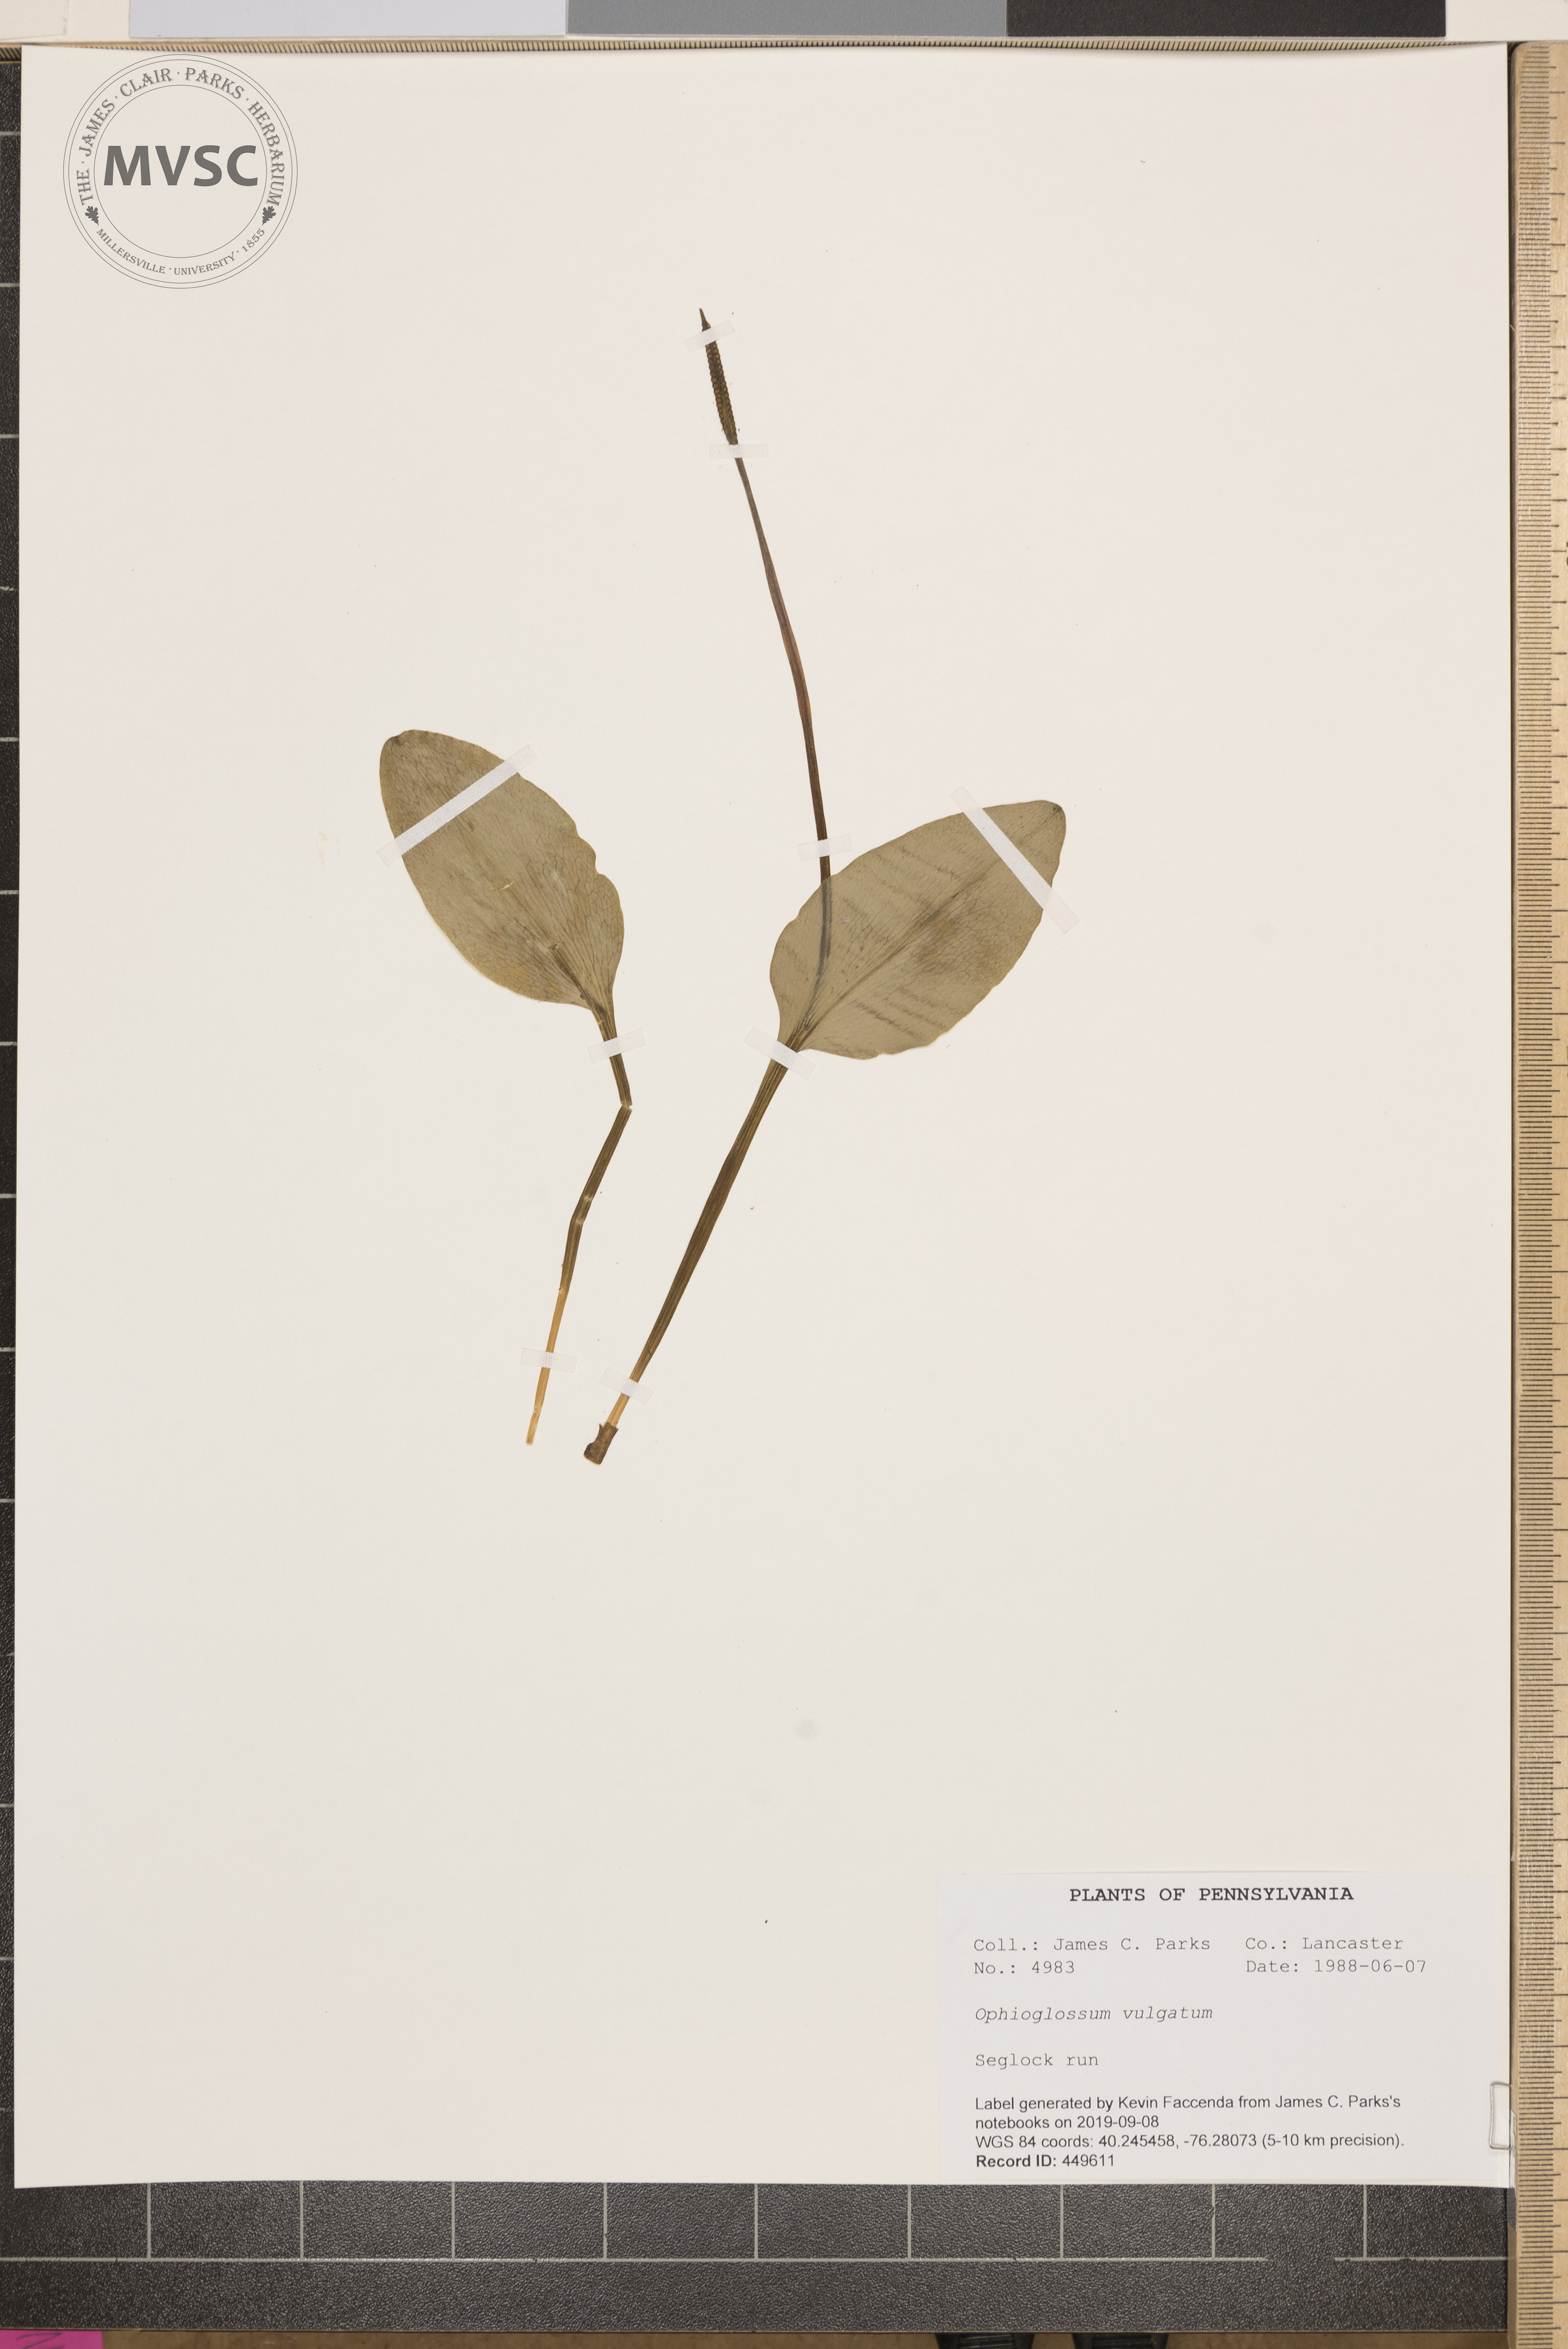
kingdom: Plantae
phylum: Tracheophyta
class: Polypodiopsida
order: Ophioglossales
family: Ophioglossaceae
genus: Ophioglossum
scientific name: Ophioglossum vulgatum
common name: Adder's-tongue
